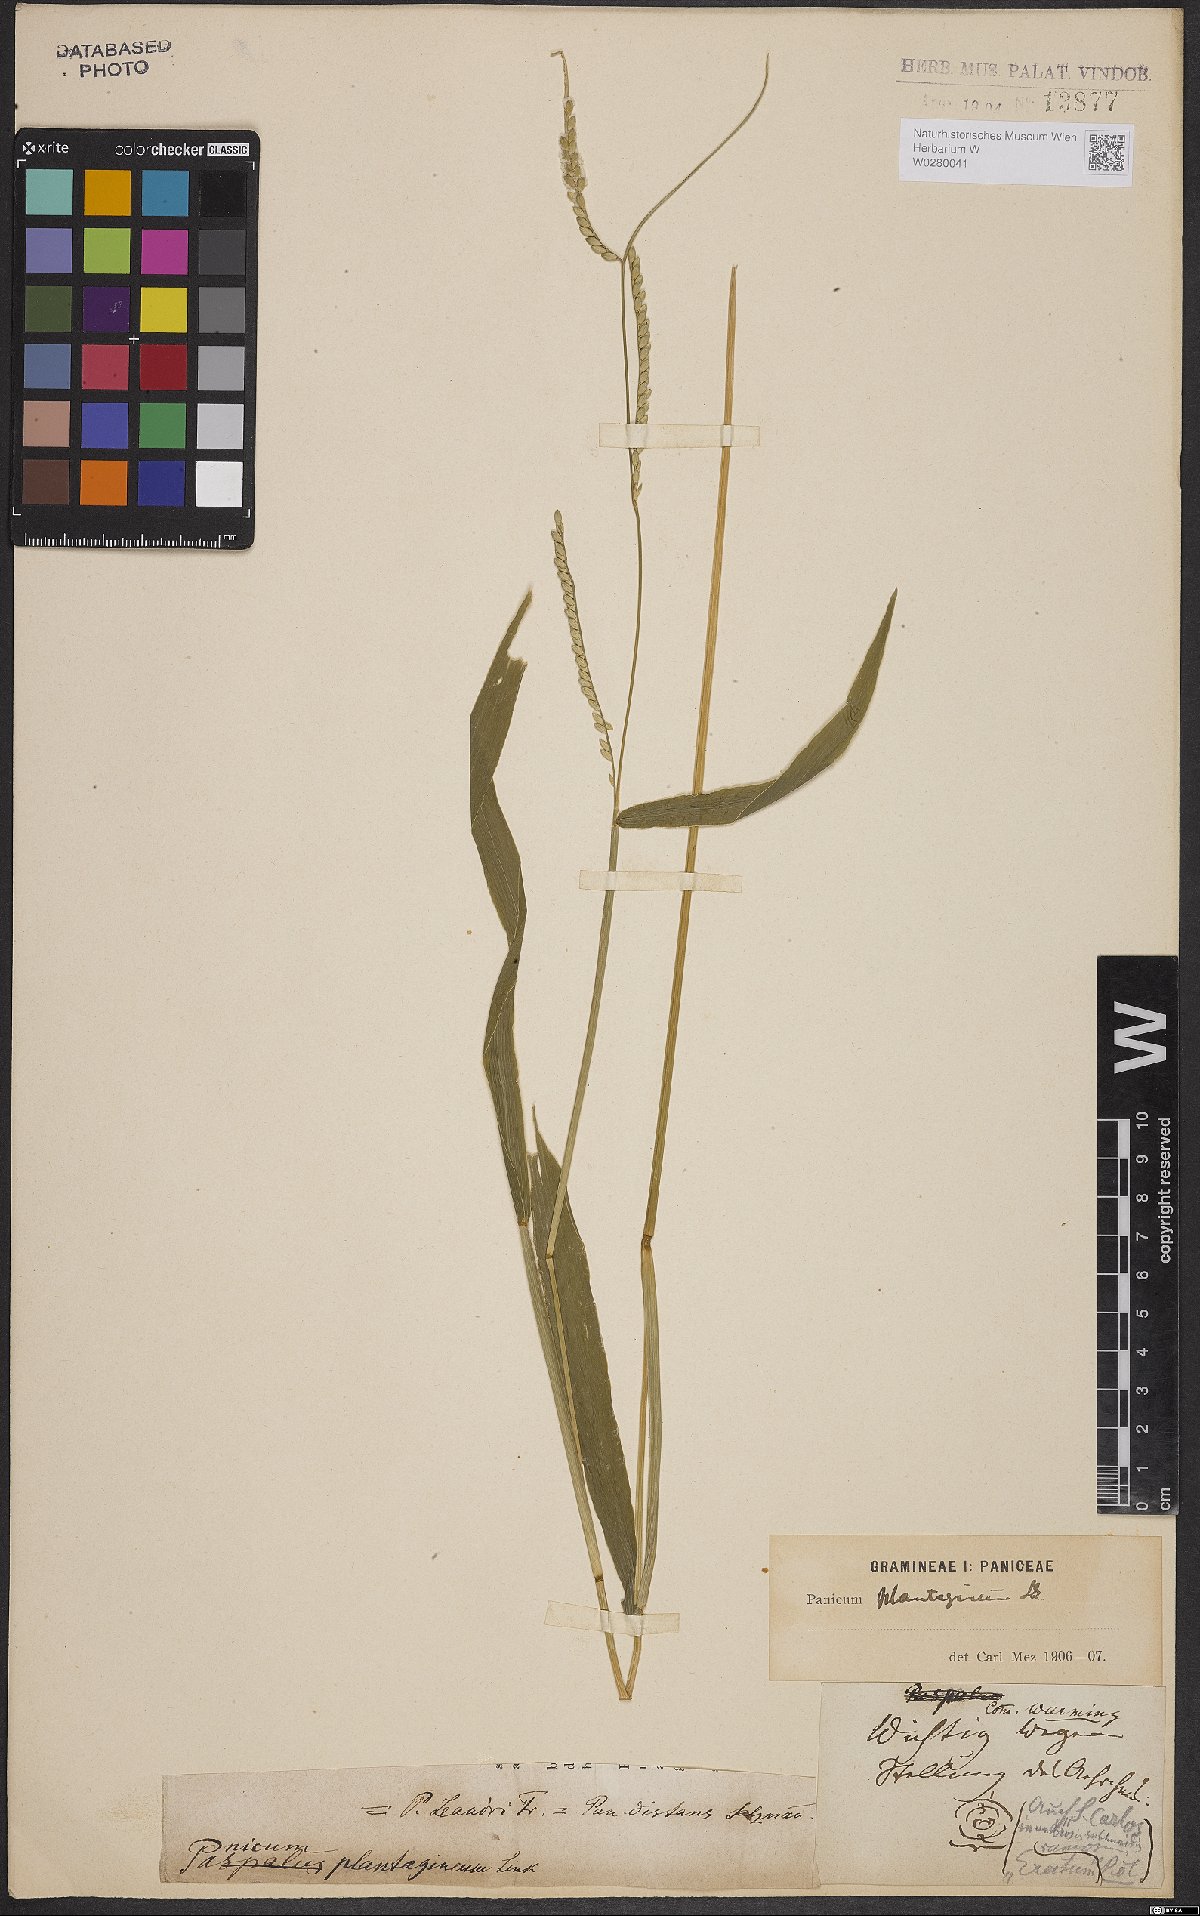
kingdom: Plantae
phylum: Tracheophyta
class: Liliopsida
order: Poales
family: Poaceae
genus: Urochloa
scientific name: Urochloa plantaginea
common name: Plantain signalgrass
